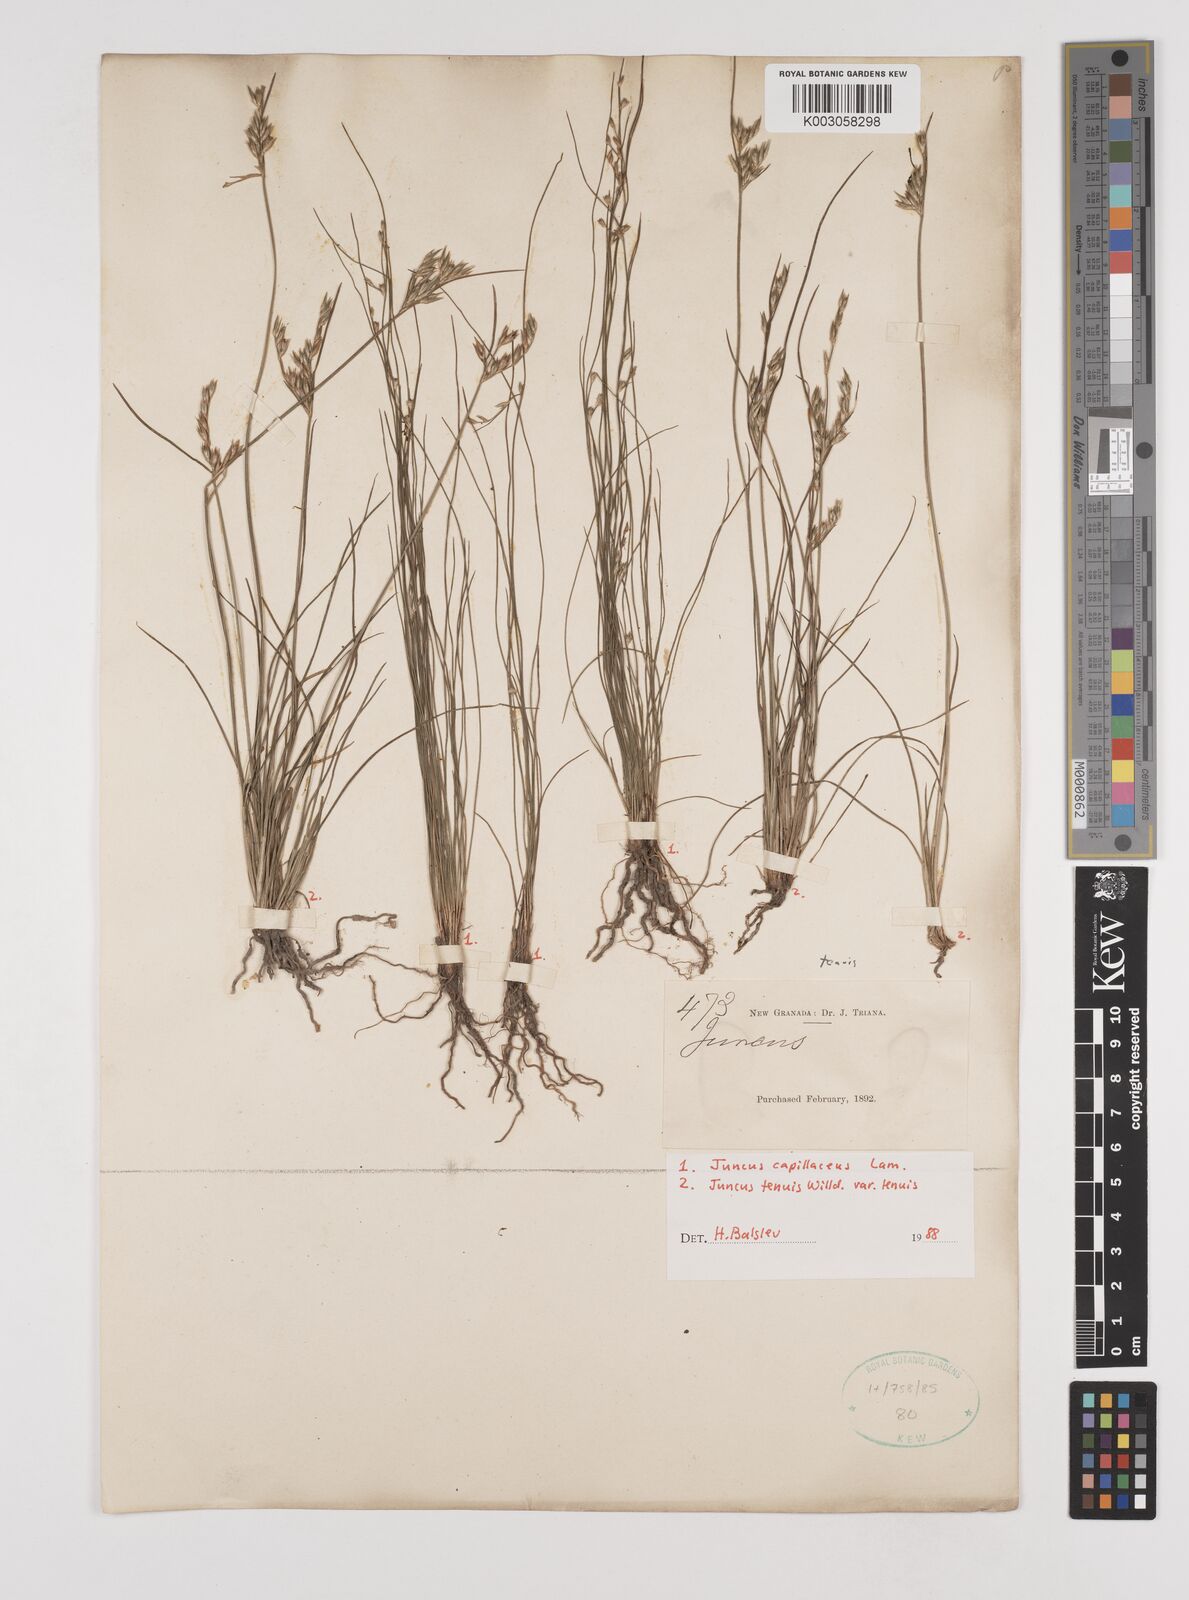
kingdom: Plantae
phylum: Tracheophyta
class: Liliopsida
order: Poales
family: Juncaceae
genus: Juncus
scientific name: Juncus capillaceus
